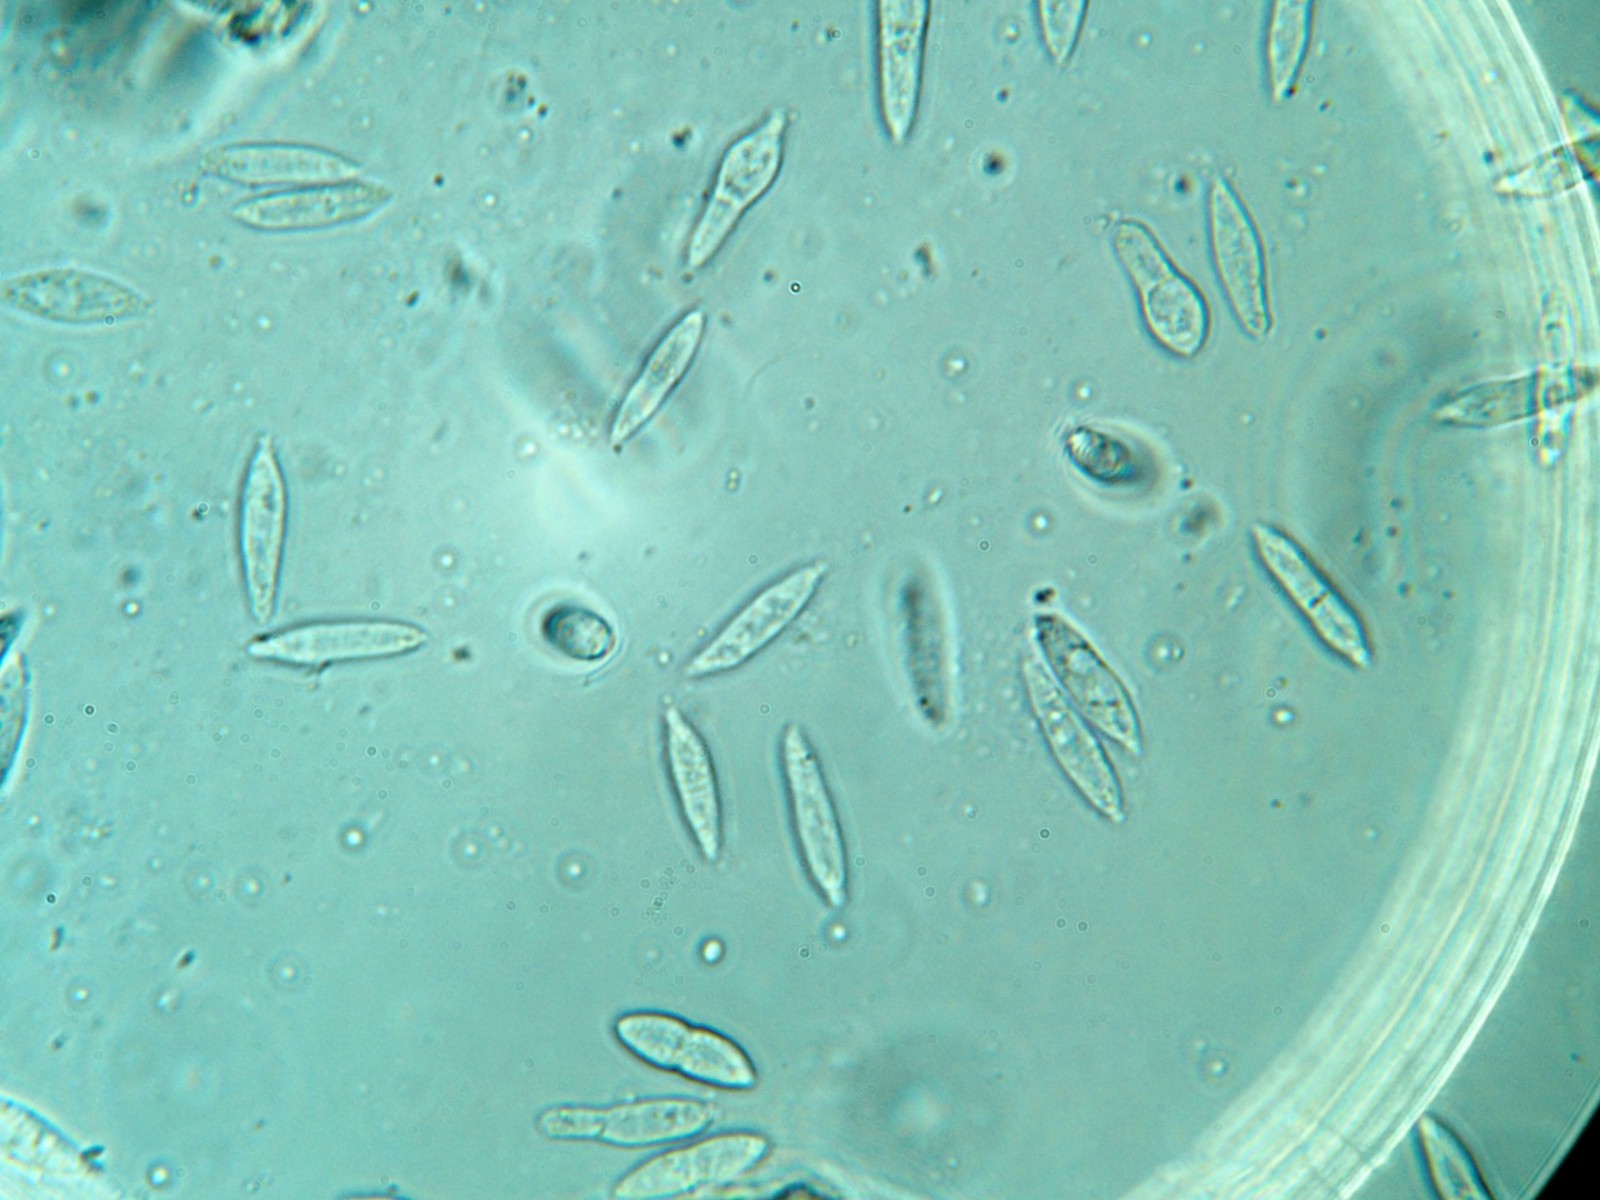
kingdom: Fungi
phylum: Ascomycota
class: Dothideomycetes
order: Pleosporales
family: Phaeosphaeriaceae
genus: Sphaerellopsis
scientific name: Sphaerellopsis filum
